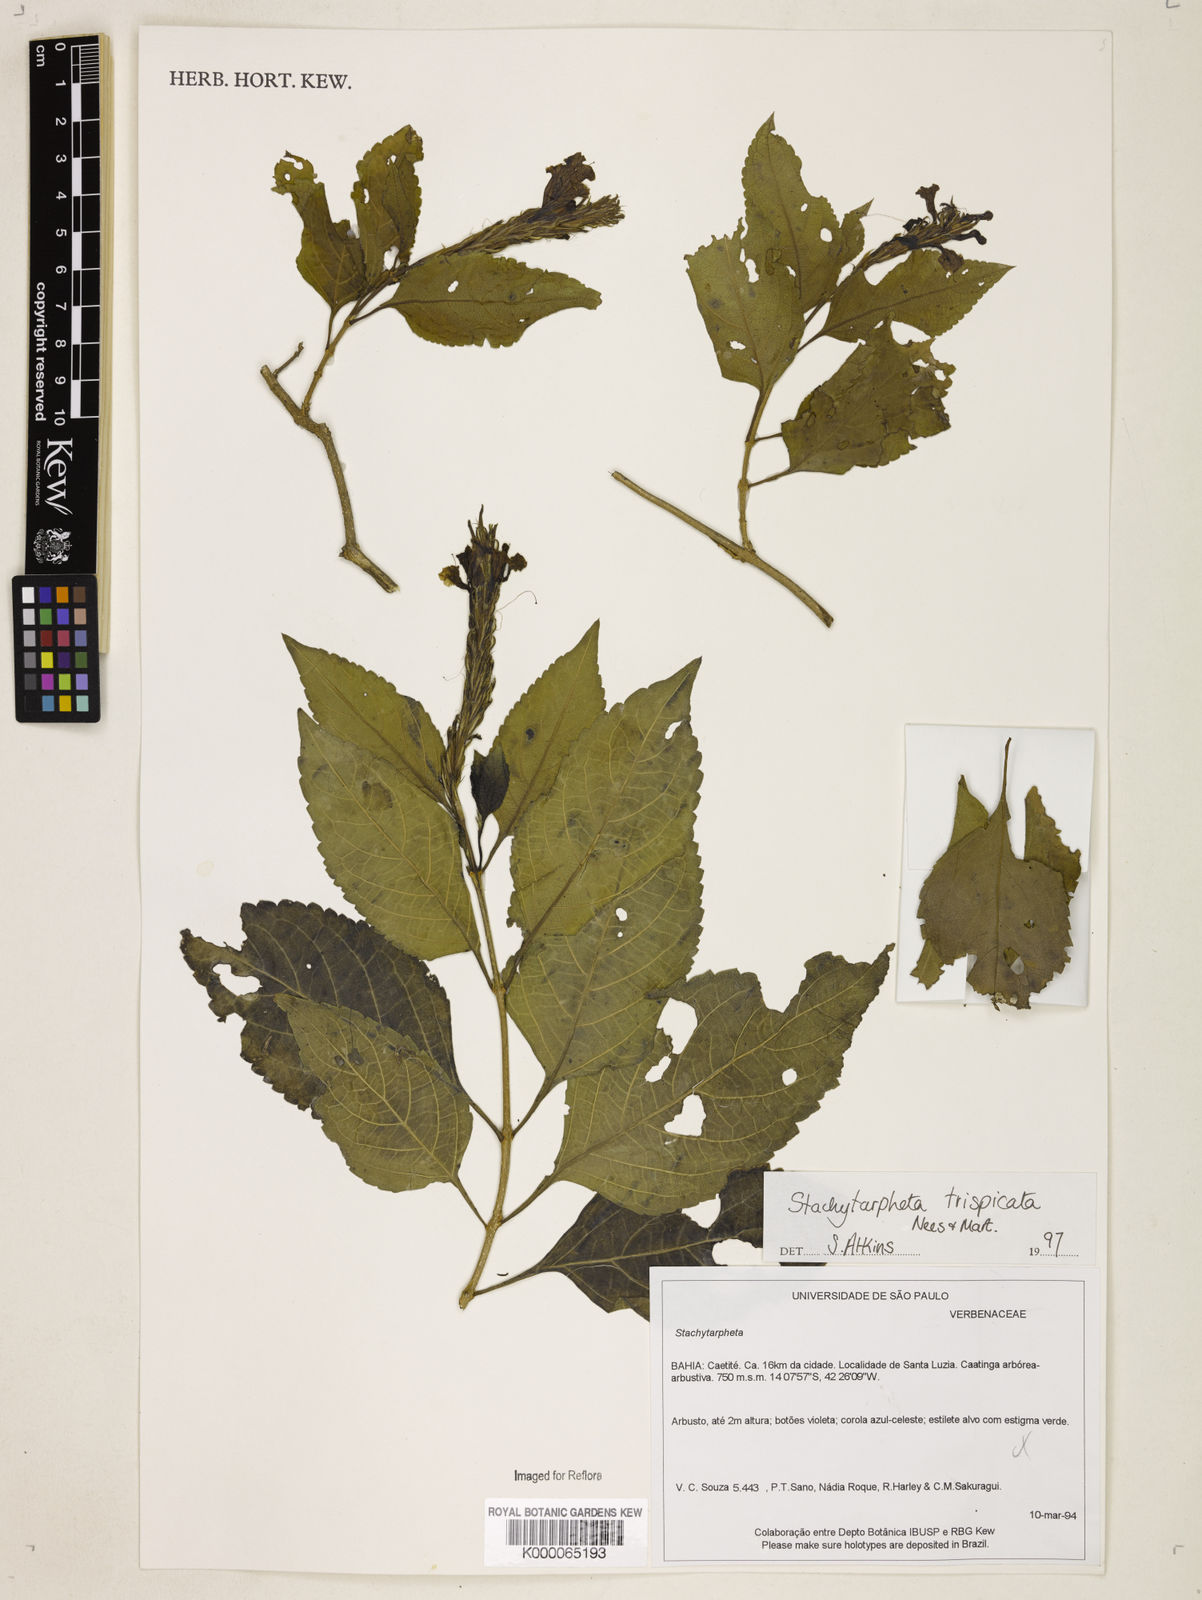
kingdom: Plantae
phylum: Tracheophyta
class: Magnoliopsida
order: Lamiales
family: Verbenaceae
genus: Stachytarpheta
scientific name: Stachytarpheta trispicata
